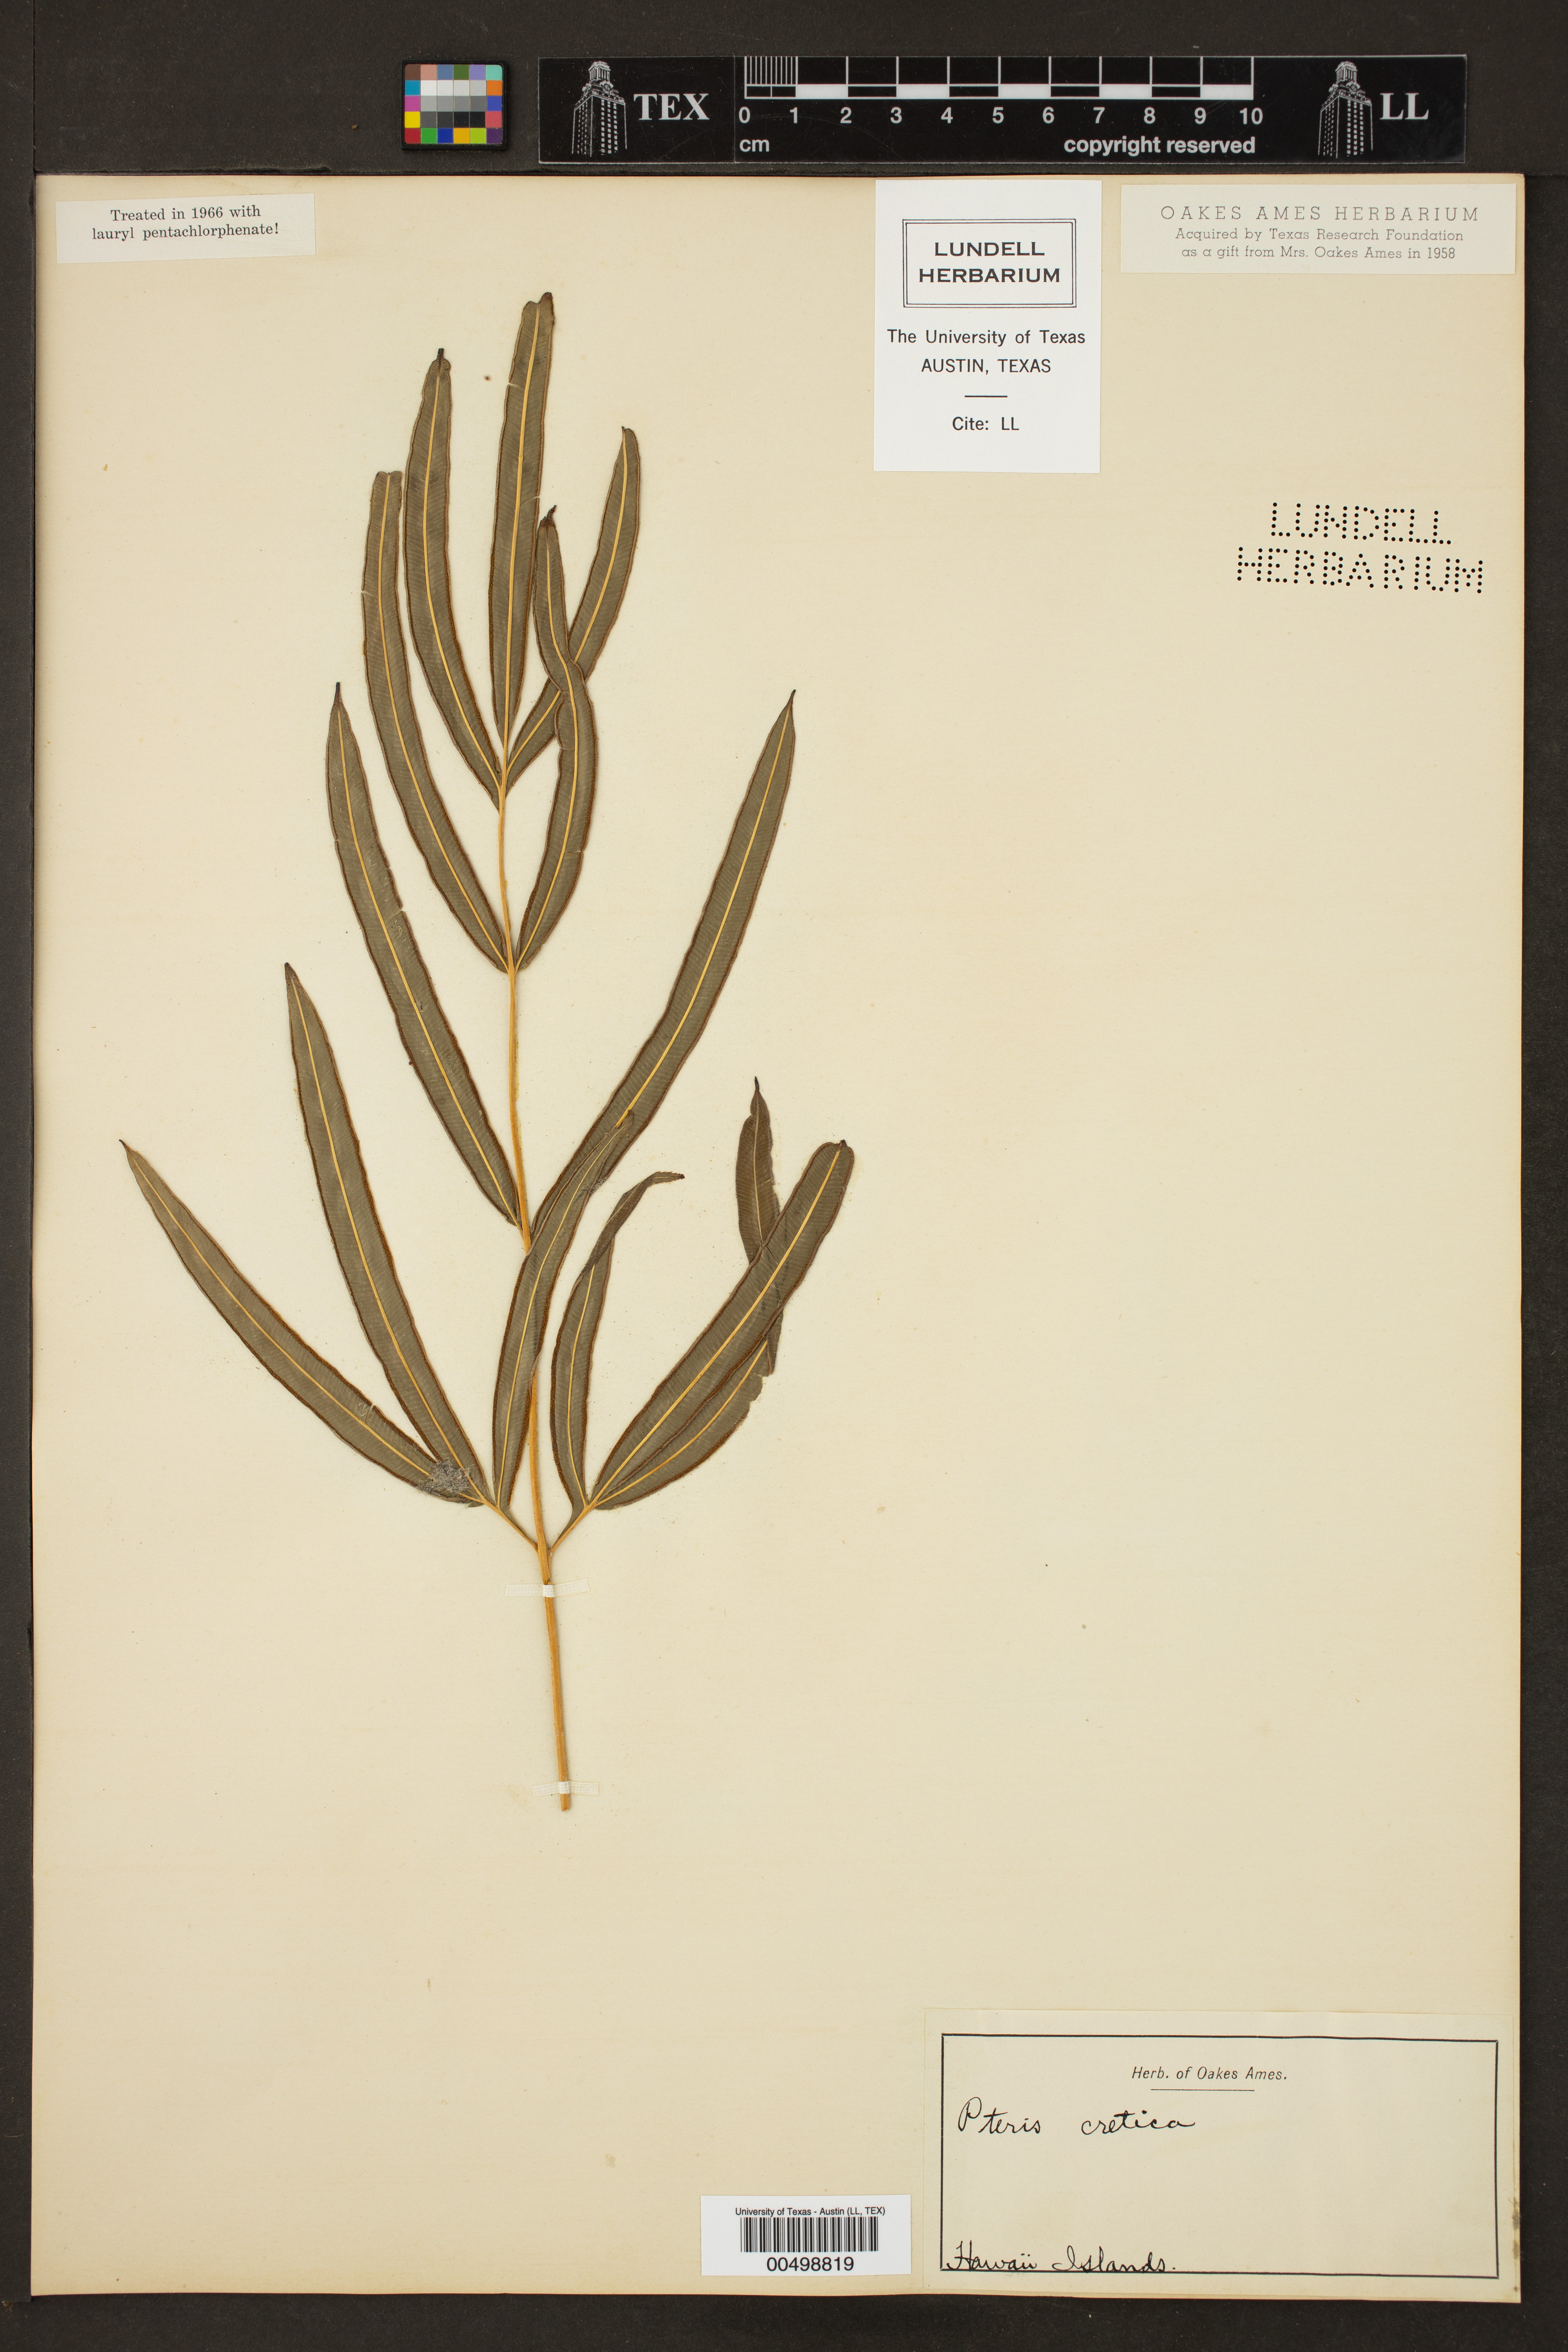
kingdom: Plantae
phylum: Tracheophyta
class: Polypodiopsida
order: Polypodiales
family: Pteridaceae
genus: Pteris
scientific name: Pteris cretica
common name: Ribbon fern
